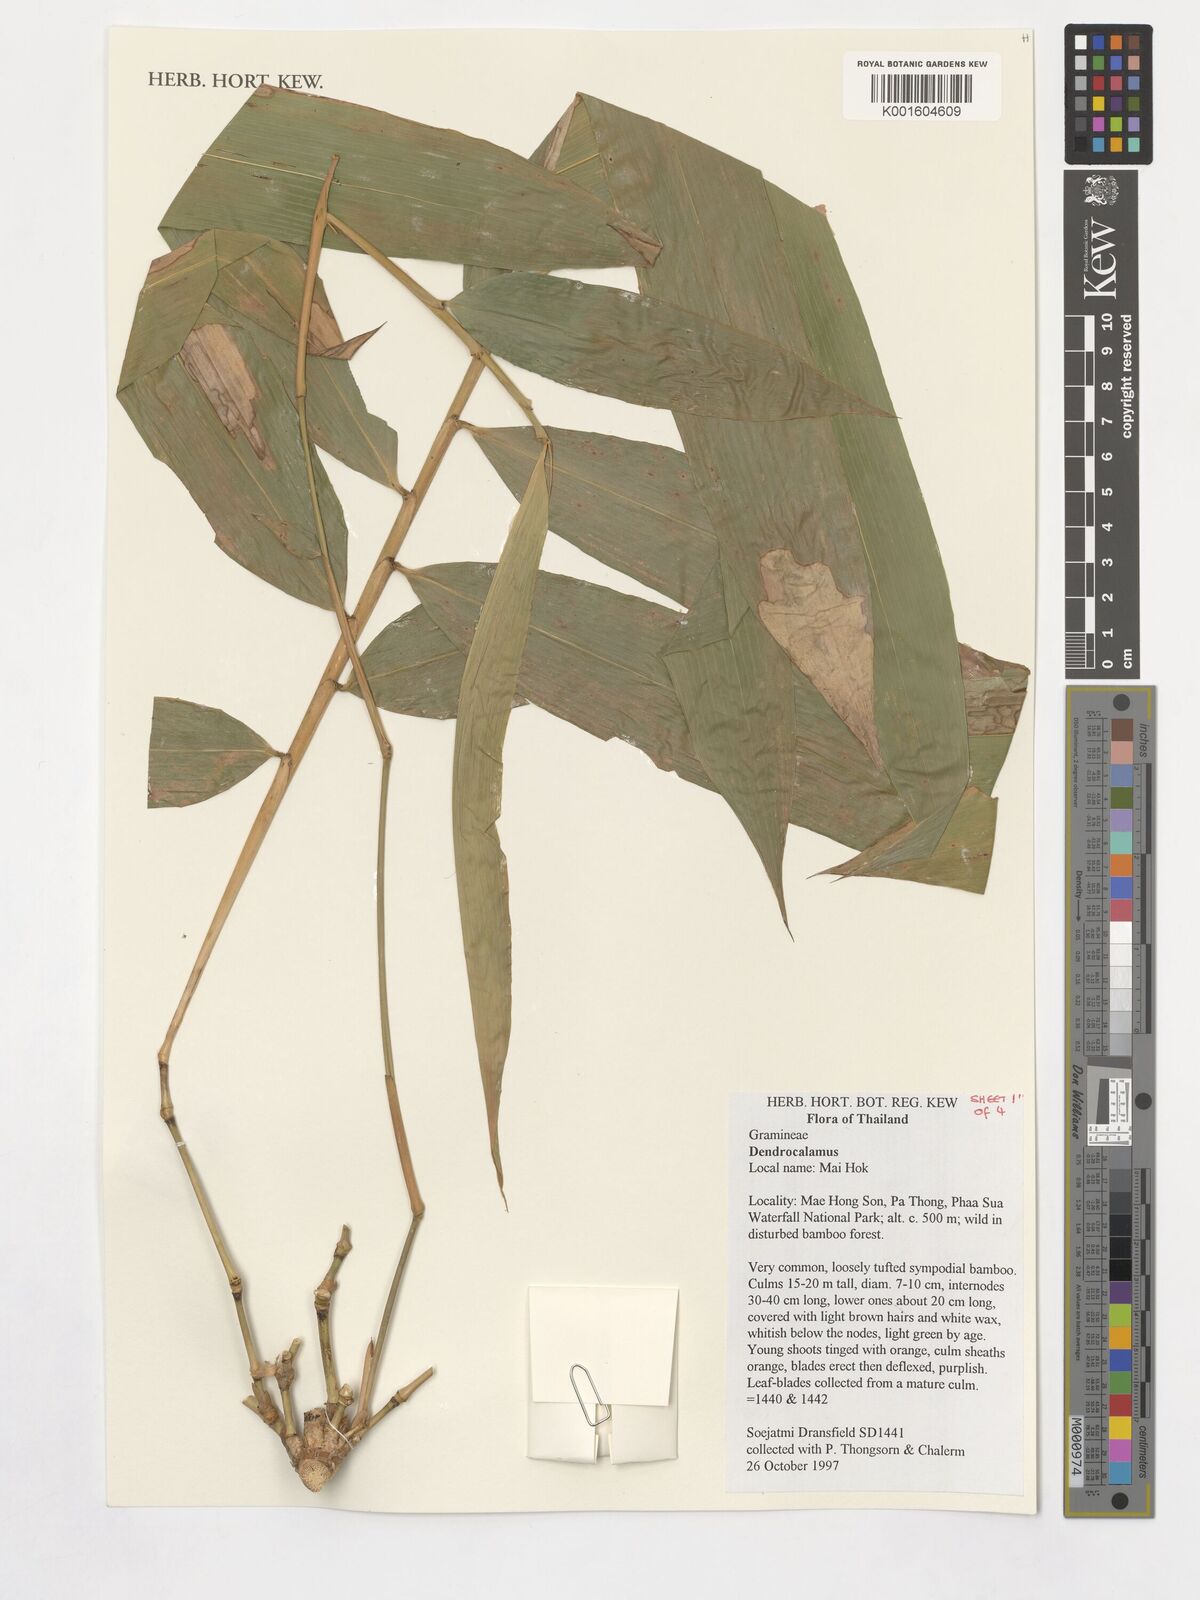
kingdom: Plantae
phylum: Tracheophyta
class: Liliopsida
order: Poales
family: Poaceae
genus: Dendrocalamus
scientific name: Dendrocalamus
